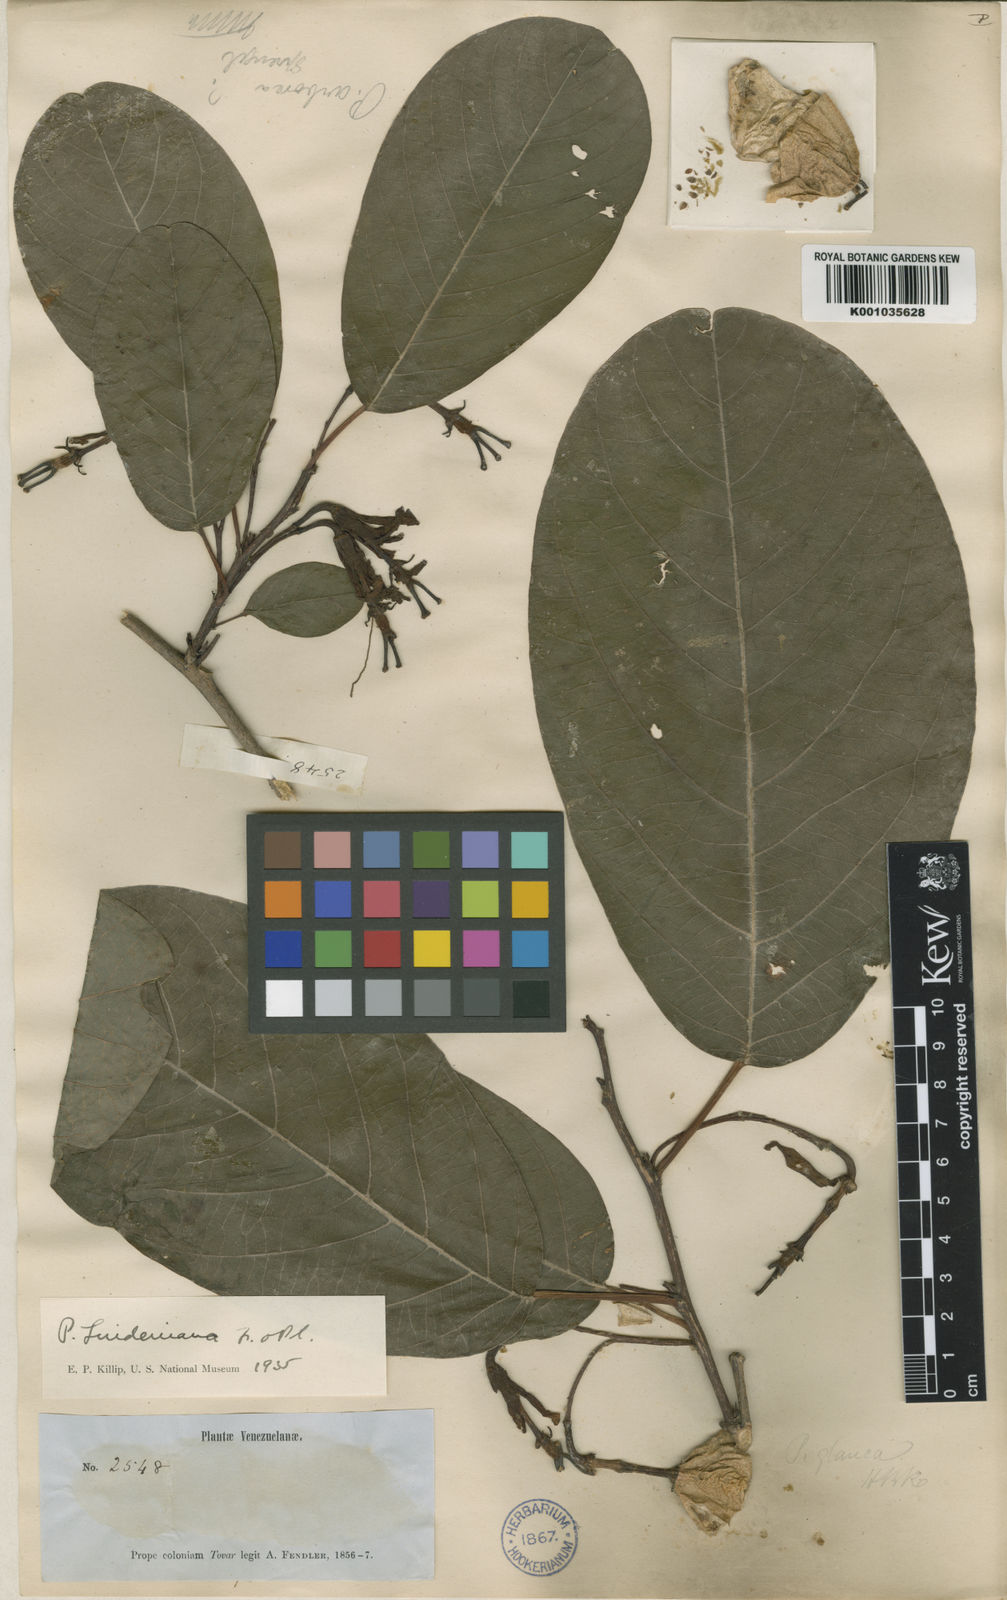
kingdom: Plantae
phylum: Tracheophyta
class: Magnoliopsida
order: Malpighiales
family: Passifloraceae
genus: Passiflora
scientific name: Passiflora lindeniana
